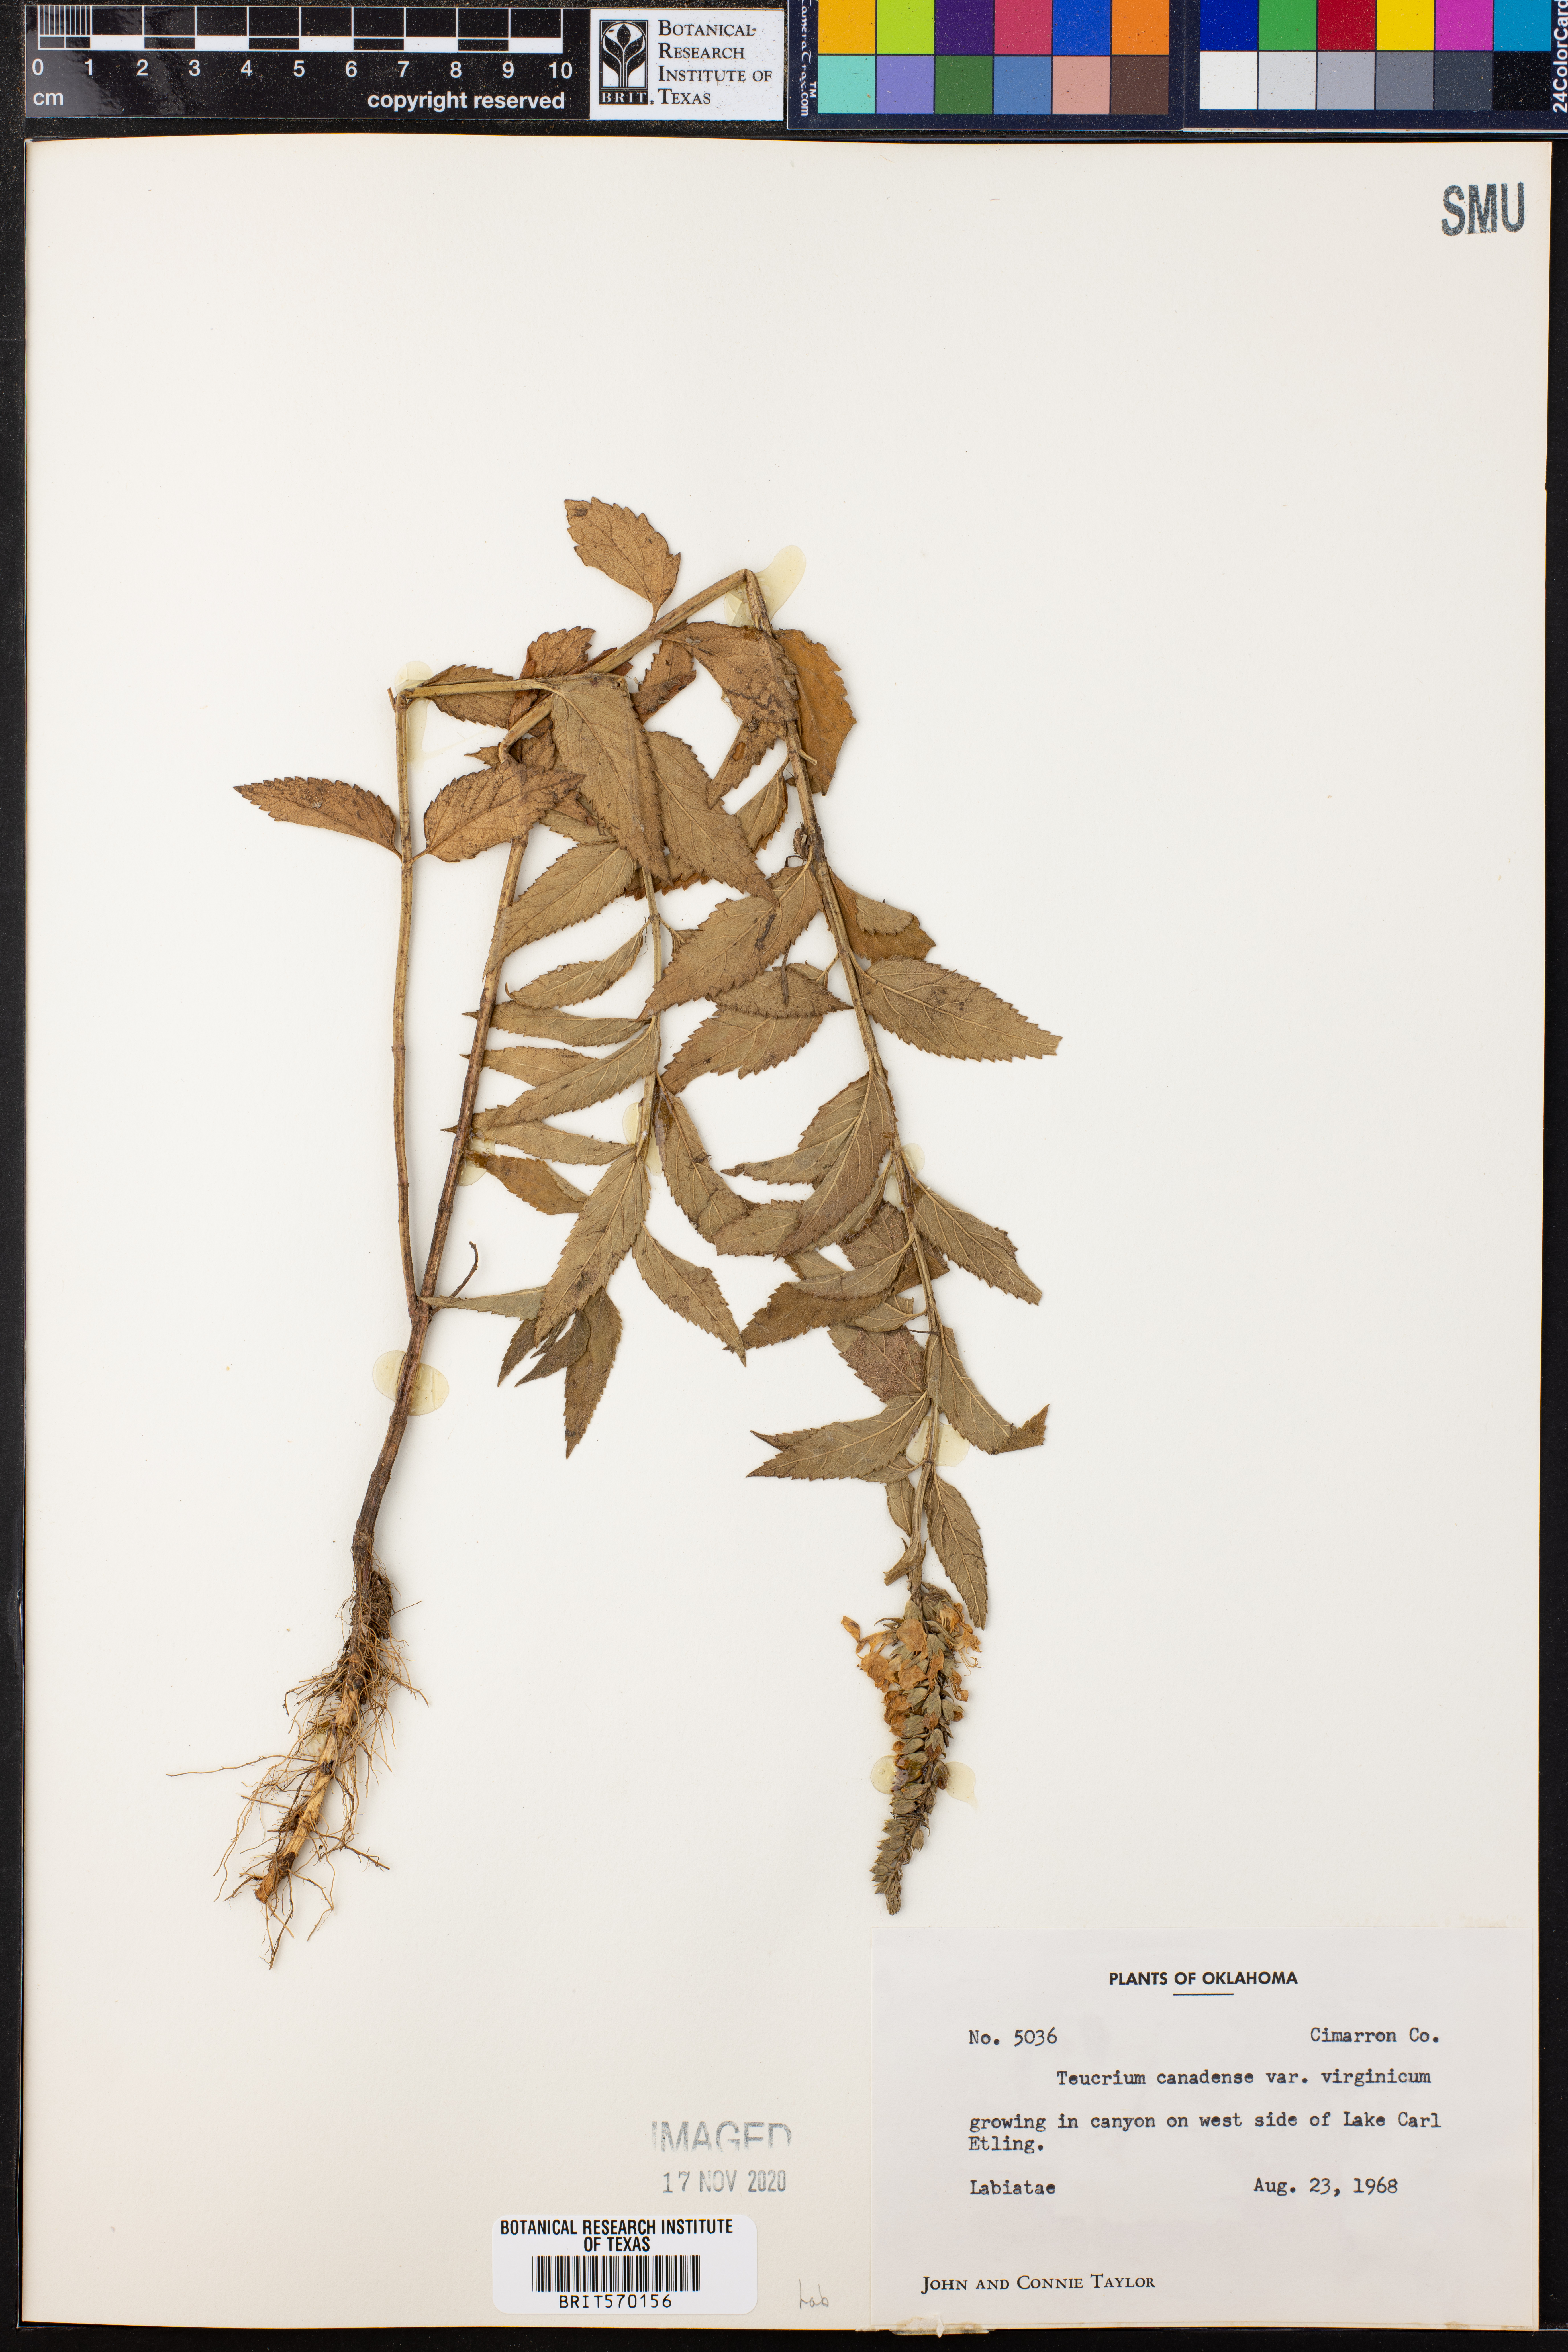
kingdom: Plantae
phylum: Tracheophyta
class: Magnoliopsida
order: Lamiales
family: Lamiaceae
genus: Teucrium
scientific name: Teucrium canadense
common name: American germander
